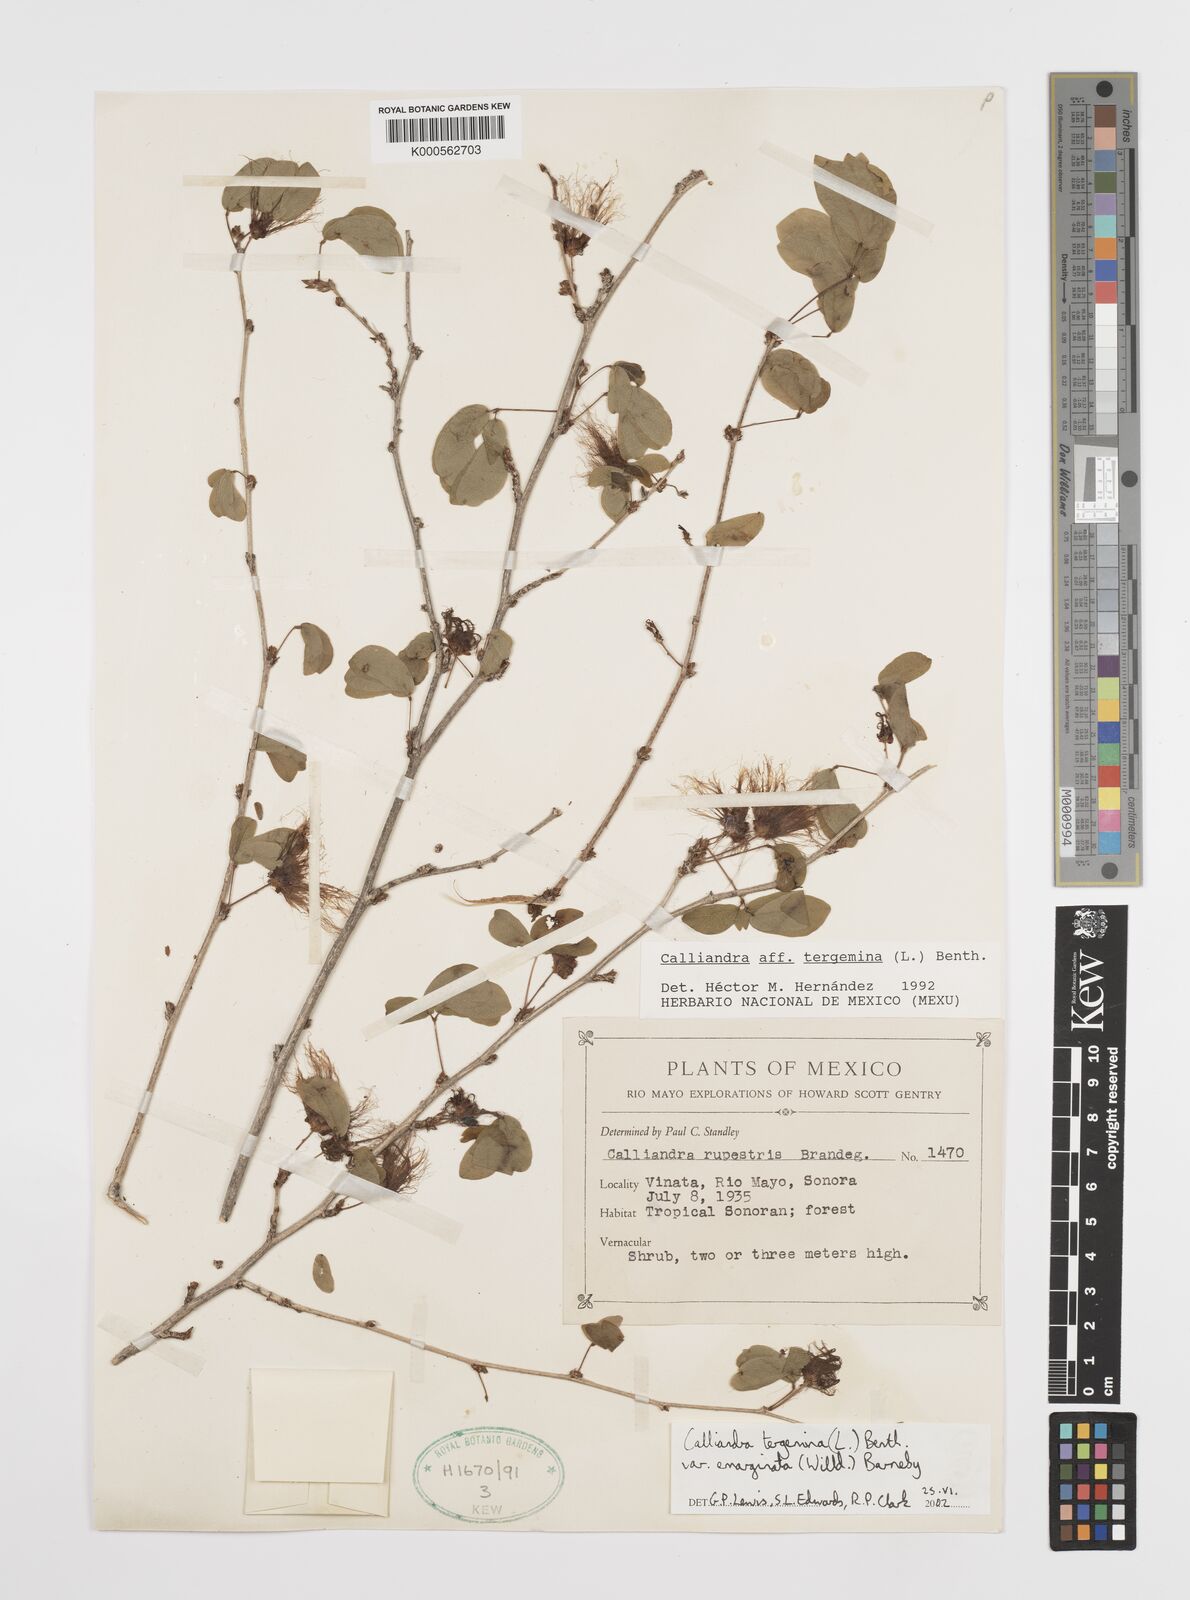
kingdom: Plantae
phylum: Tracheophyta
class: Magnoliopsida
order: Fabales
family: Fabaceae
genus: Calliandra
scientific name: Calliandra tergemina
